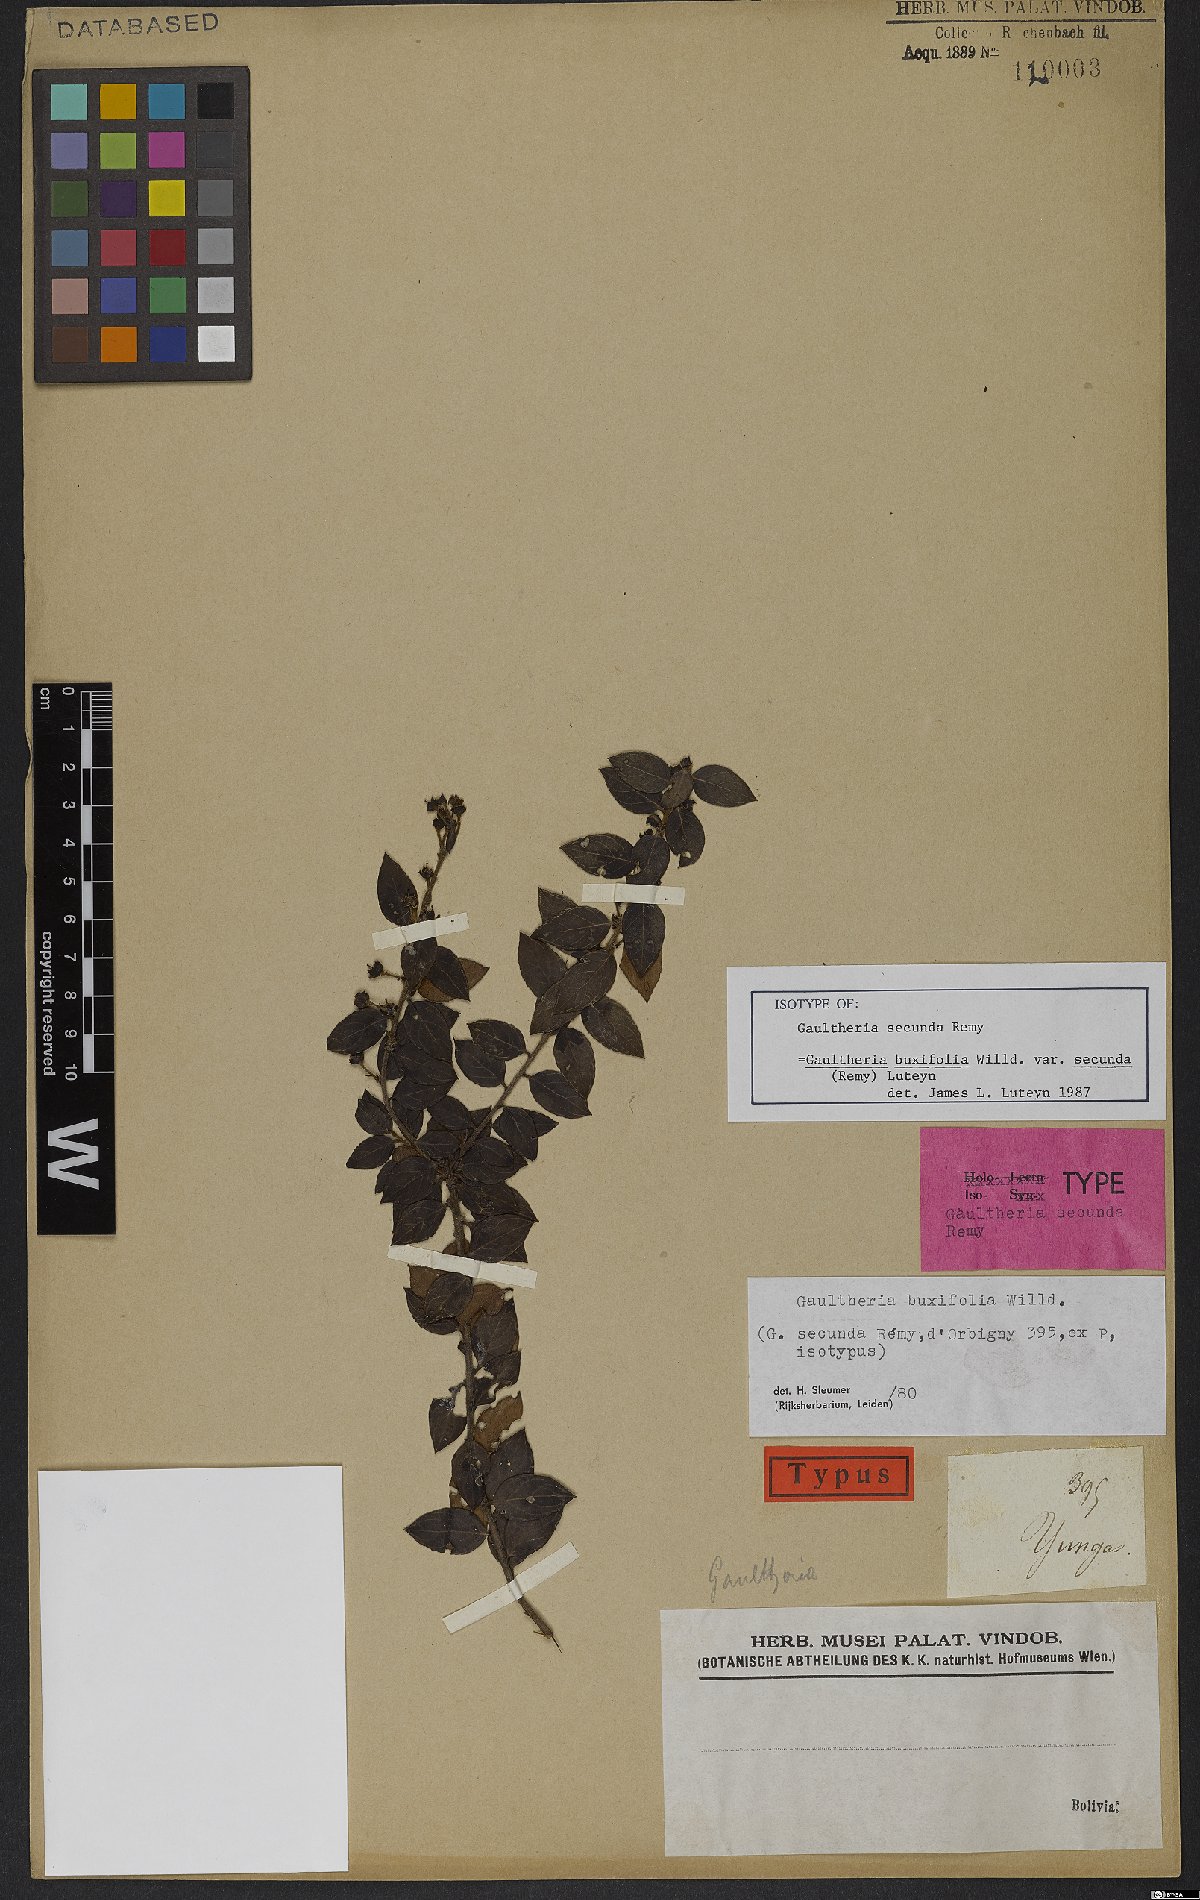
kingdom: Plantae
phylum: Tracheophyta
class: Magnoliopsida
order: Ericales
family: Ericaceae
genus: Gaultheria
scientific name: Gaultheria buxifolia
